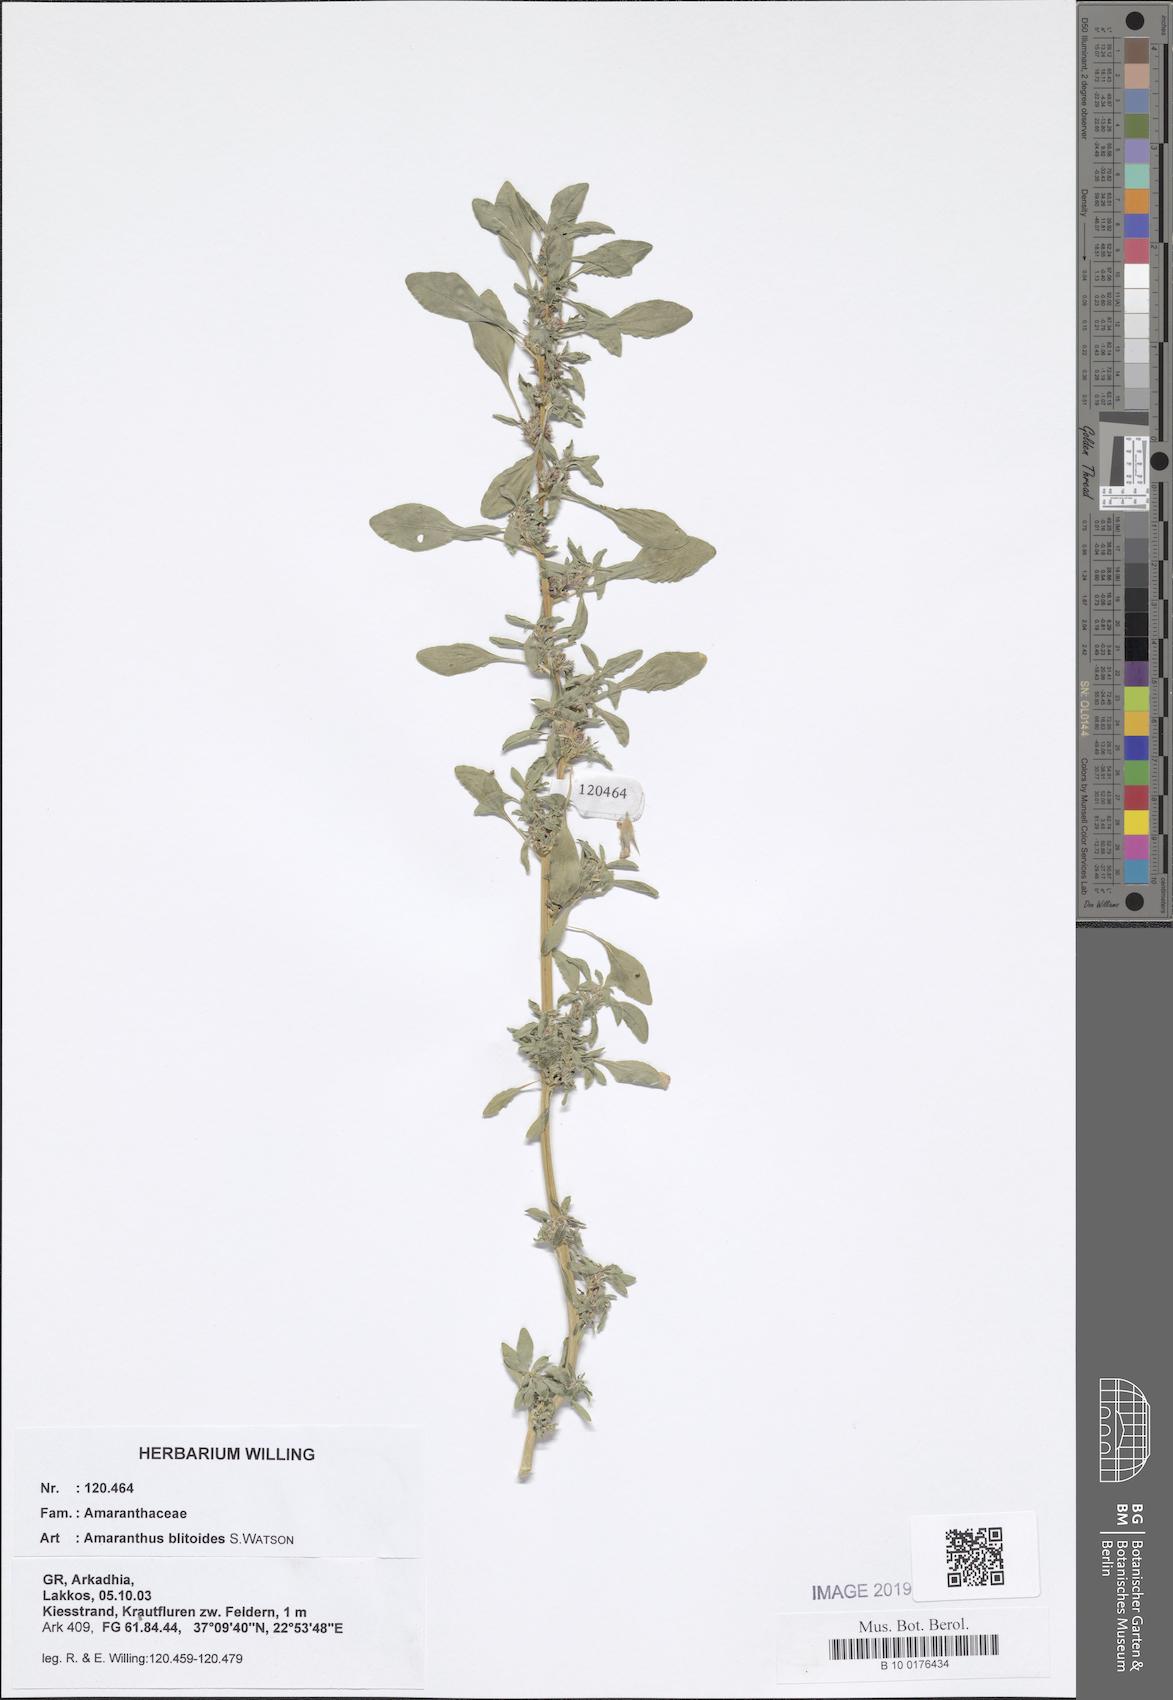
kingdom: Plantae
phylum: Tracheophyta
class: Magnoliopsida
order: Caryophyllales
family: Amaranthaceae
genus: Amaranthus
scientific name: Amaranthus blitoides
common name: Prostrate pigweed
